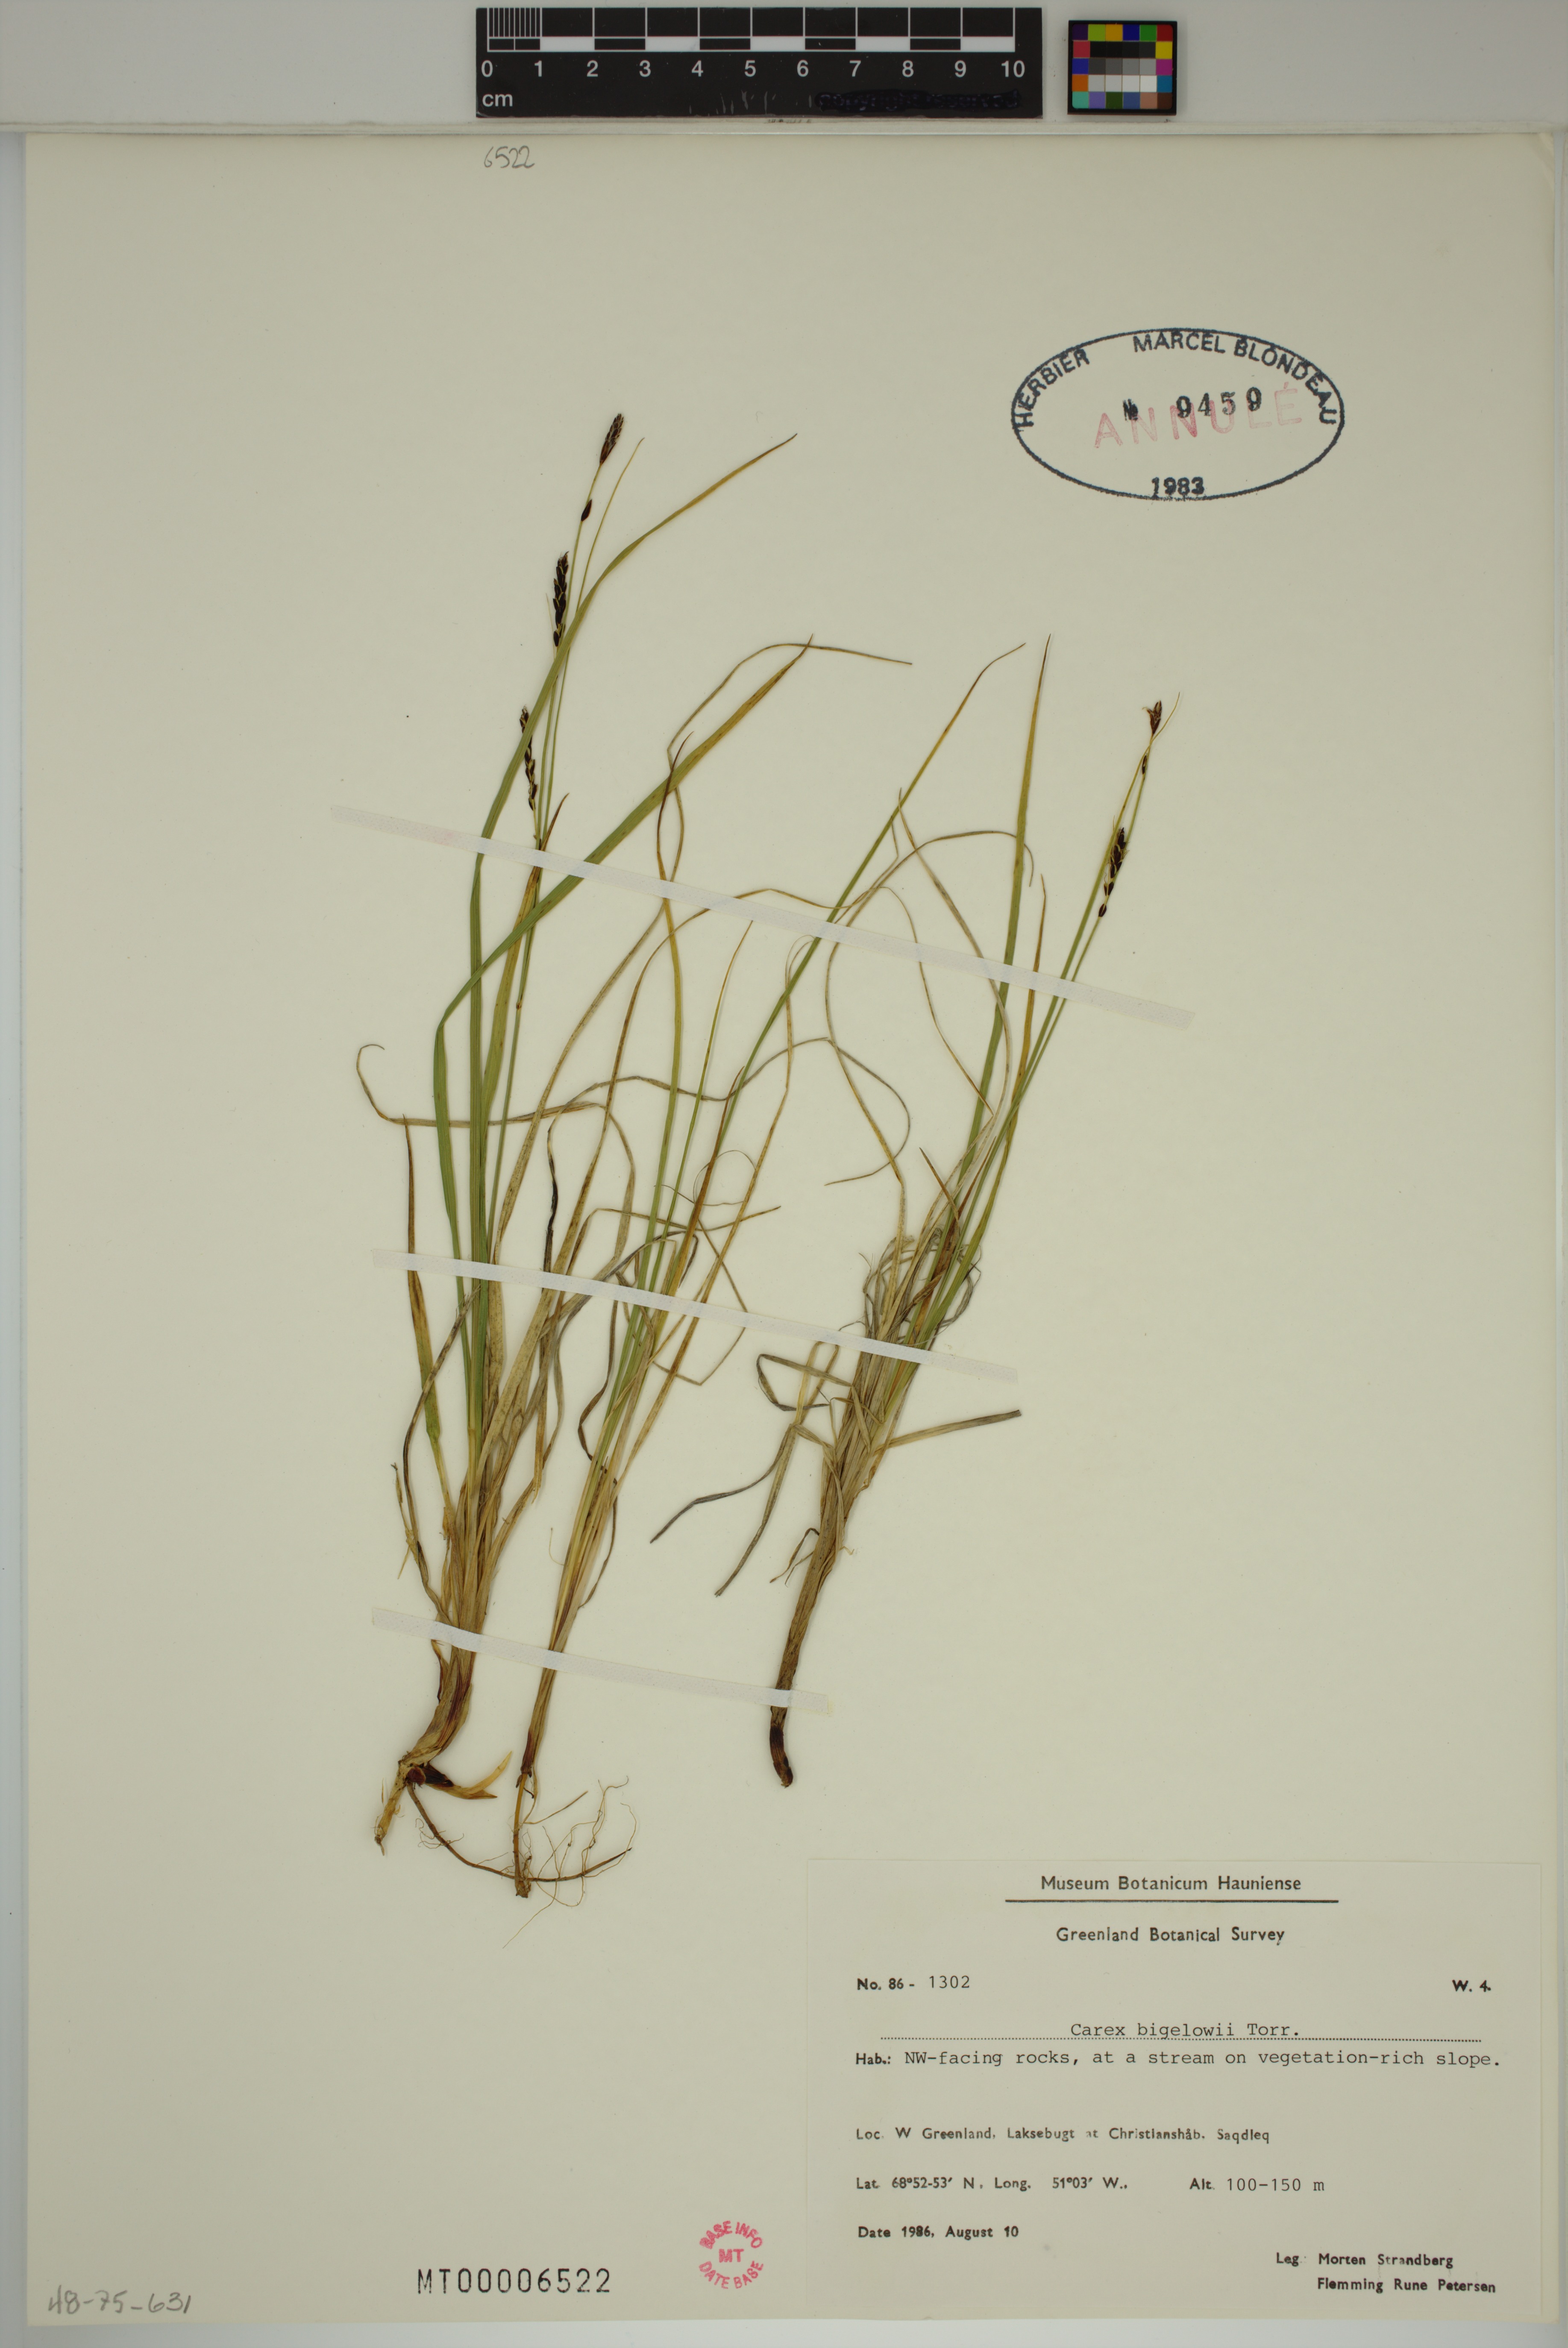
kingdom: Plantae
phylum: Tracheophyta
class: Liliopsida
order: Poales
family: Cyperaceae
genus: Carex
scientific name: Carex bigelowii
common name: Stiff sedge
